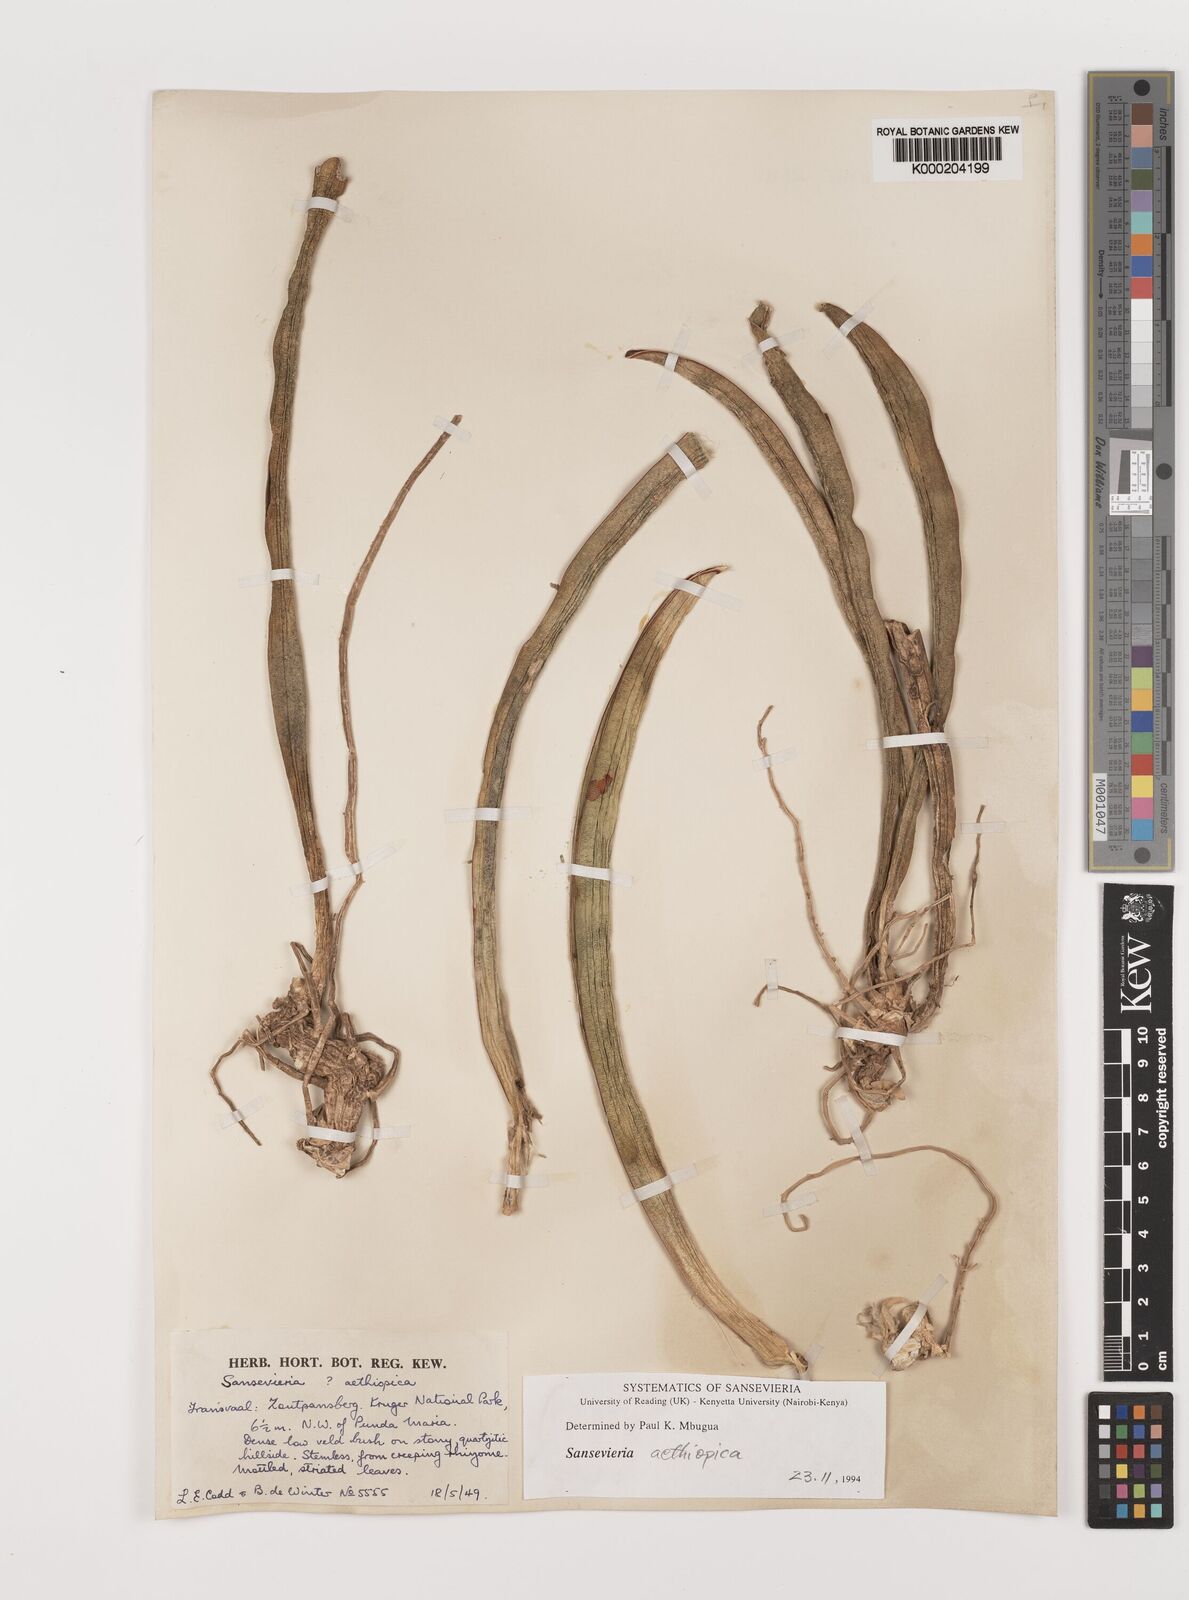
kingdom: Plantae
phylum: Tracheophyta
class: Liliopsida
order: Asparagales
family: Asparagaceae
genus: Dracaena
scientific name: Dracaena aethiopica
